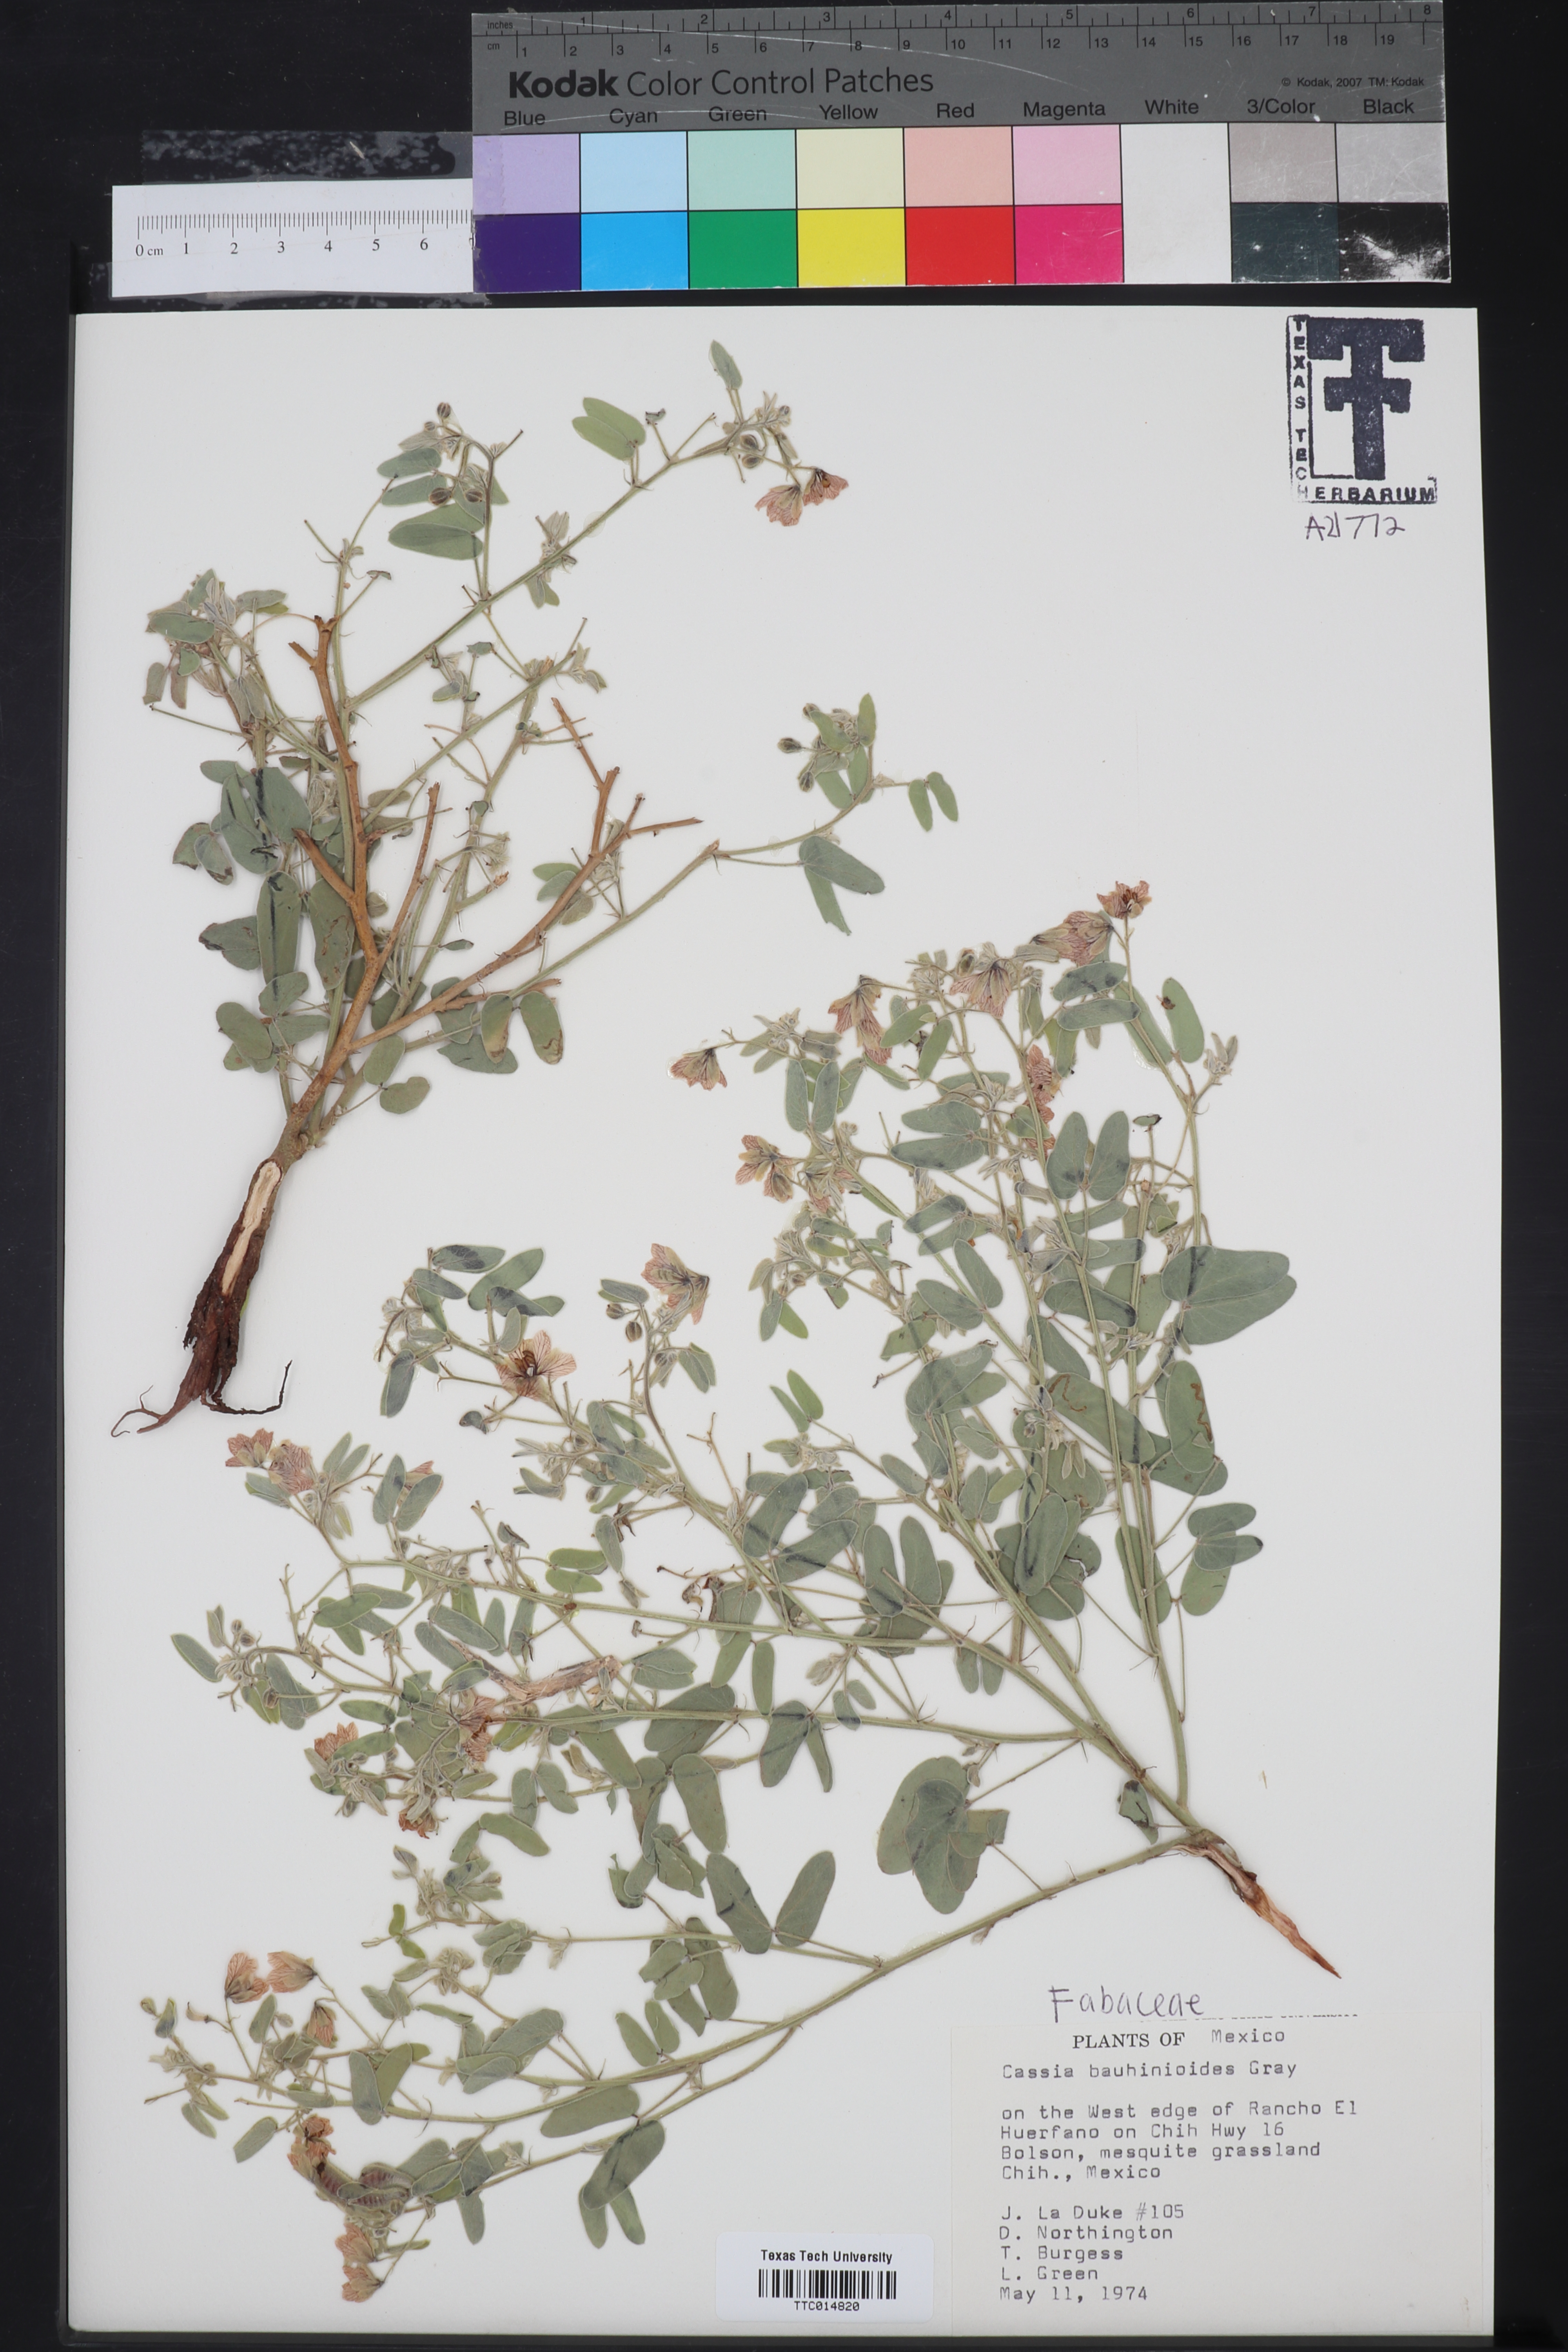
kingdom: Plantae
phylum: Tracheophyta
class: Magnoliopsida
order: Fabales
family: Fabaceae
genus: Senna
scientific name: Senna bauhinioides
